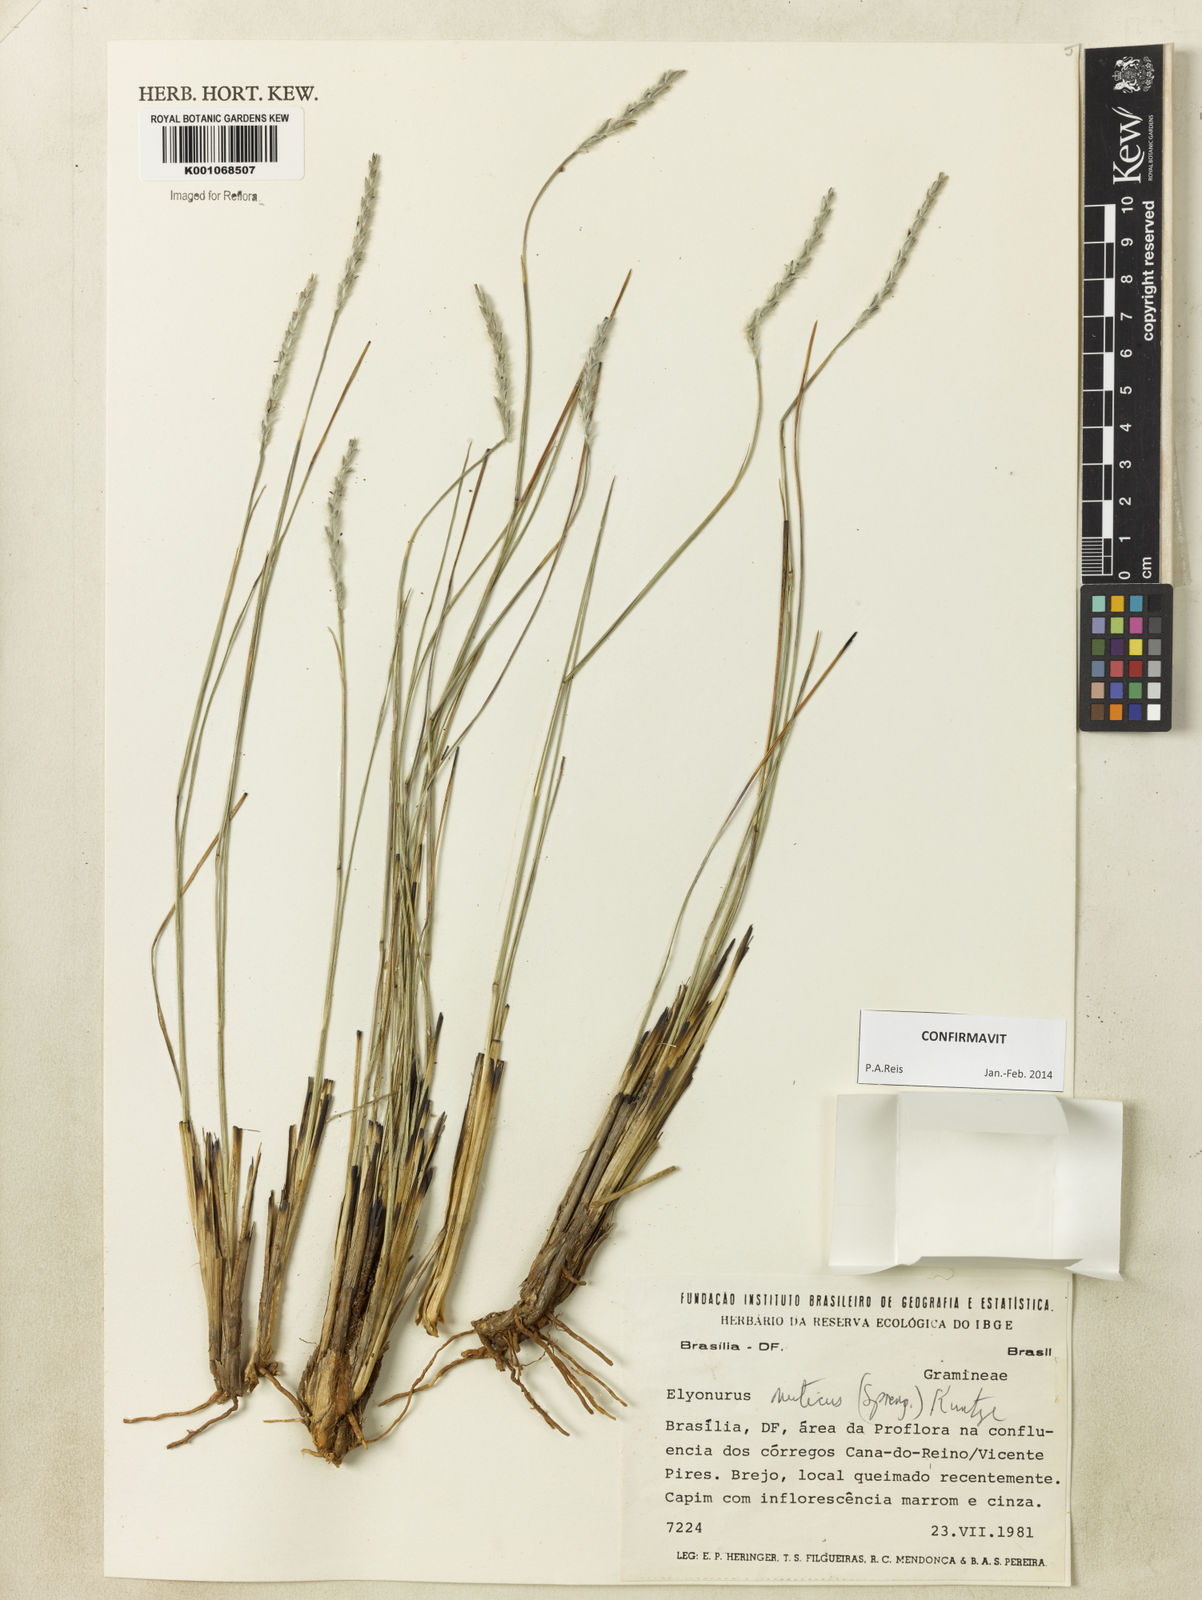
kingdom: Plantae
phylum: Tracheophyta
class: Liliopsida
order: Poales
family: Poaceae
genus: Elionurus
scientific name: Elionurus muticus
